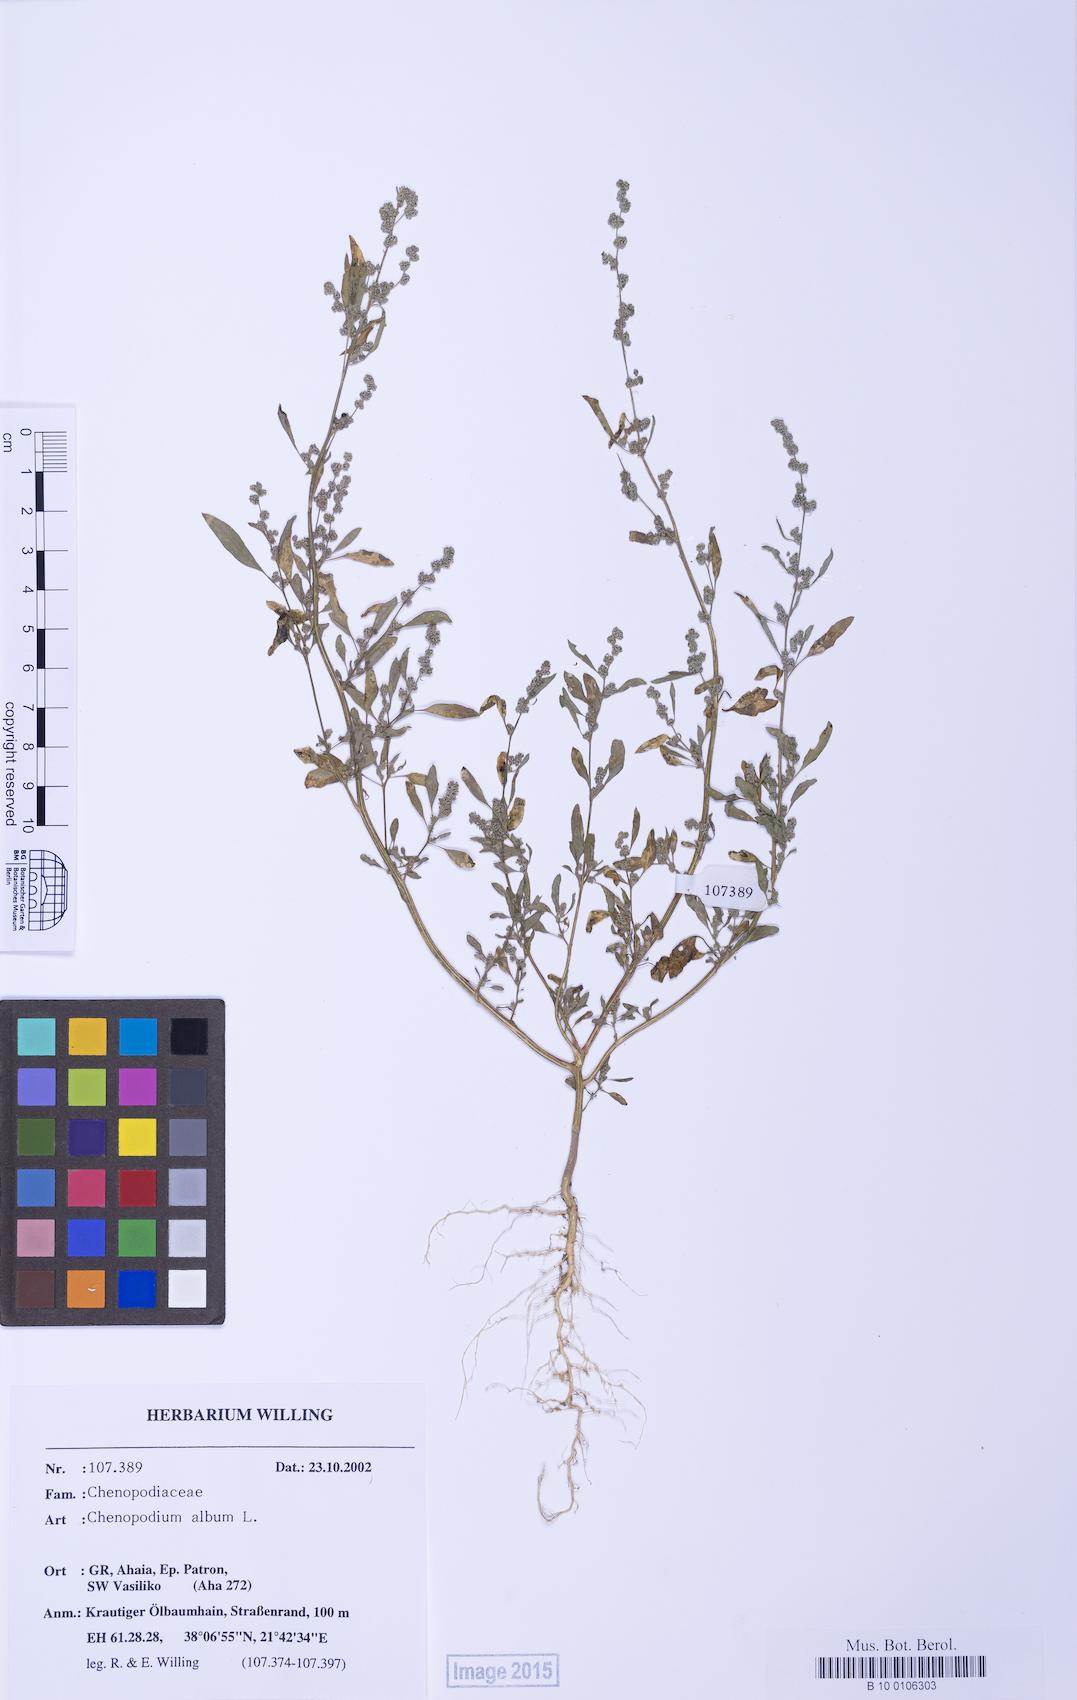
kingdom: Plantae
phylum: Tracheophyta
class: Magnoliopsida
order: Caryophyllales
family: Amaranthaceae
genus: Chenopodium
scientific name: Chenopodium striatiforme
